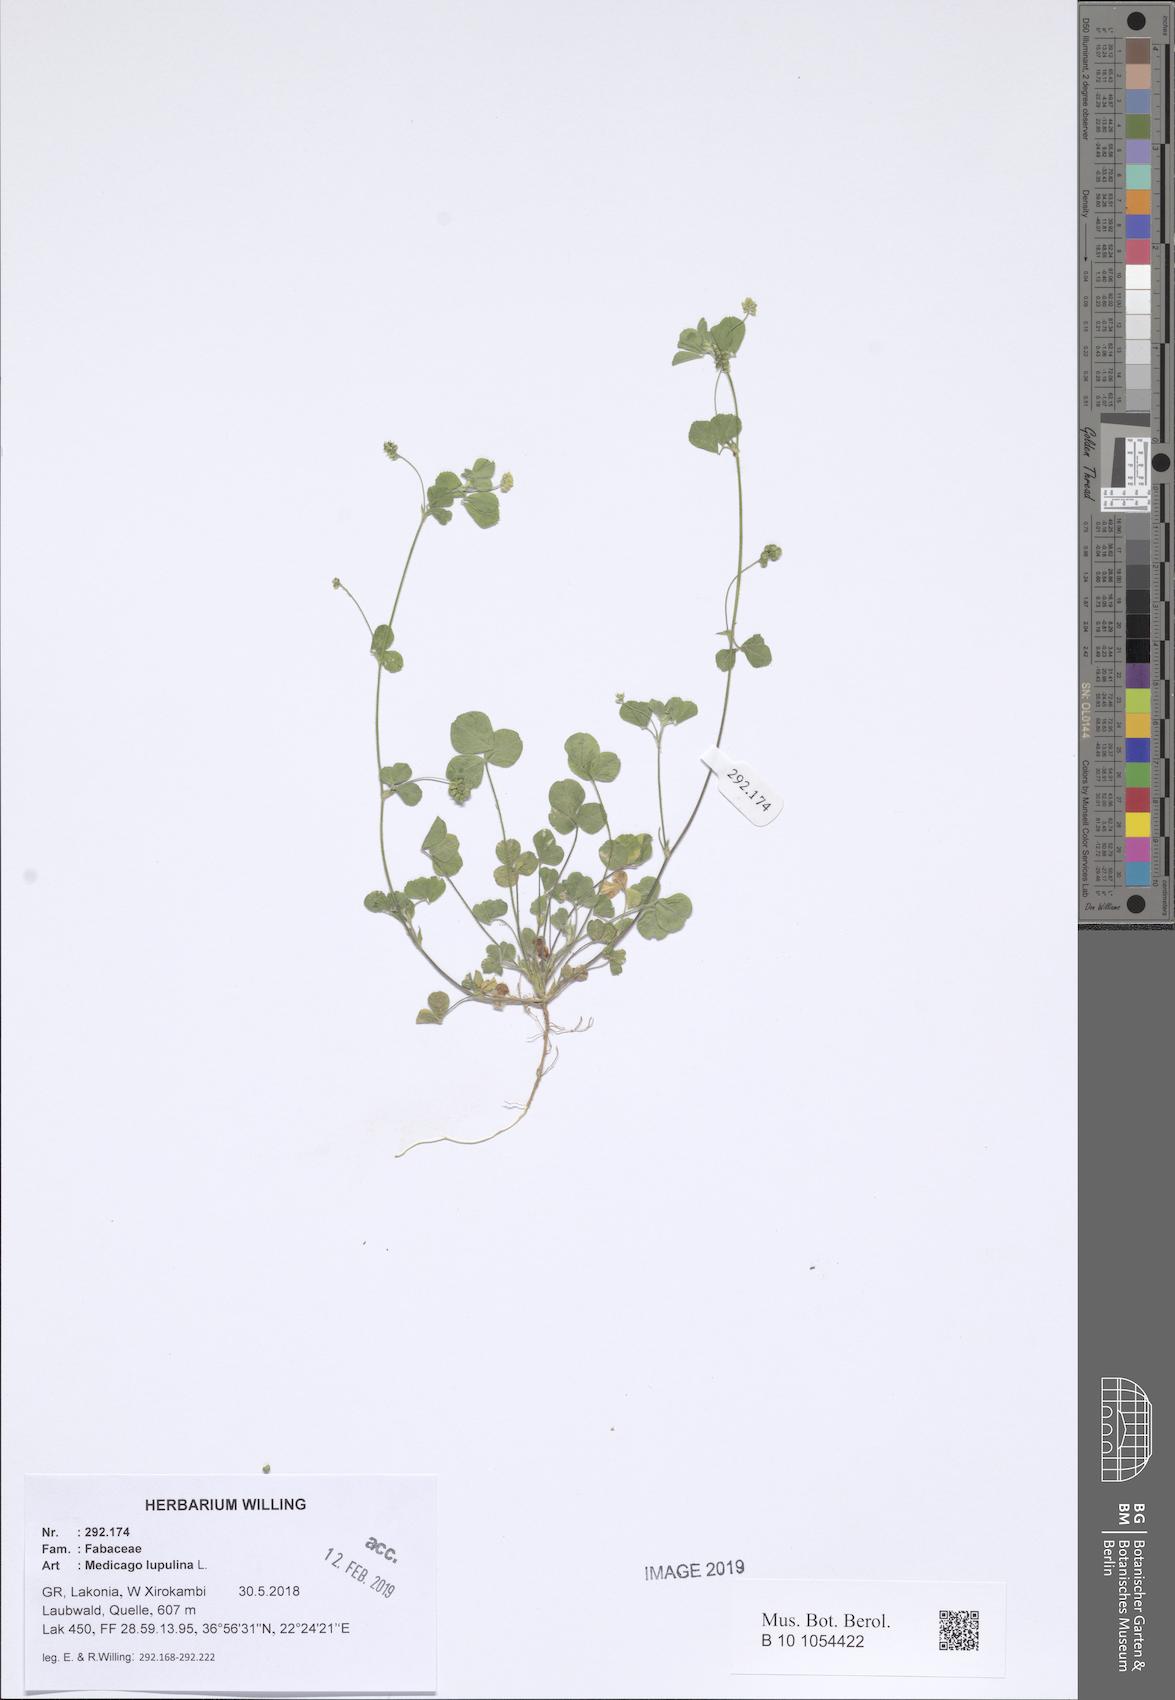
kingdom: Plantae
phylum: Tracheophyta
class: Magnoliopsida
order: Fabales
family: Fabaceae
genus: Medicago
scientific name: Medicago lupulina
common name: Black medick
